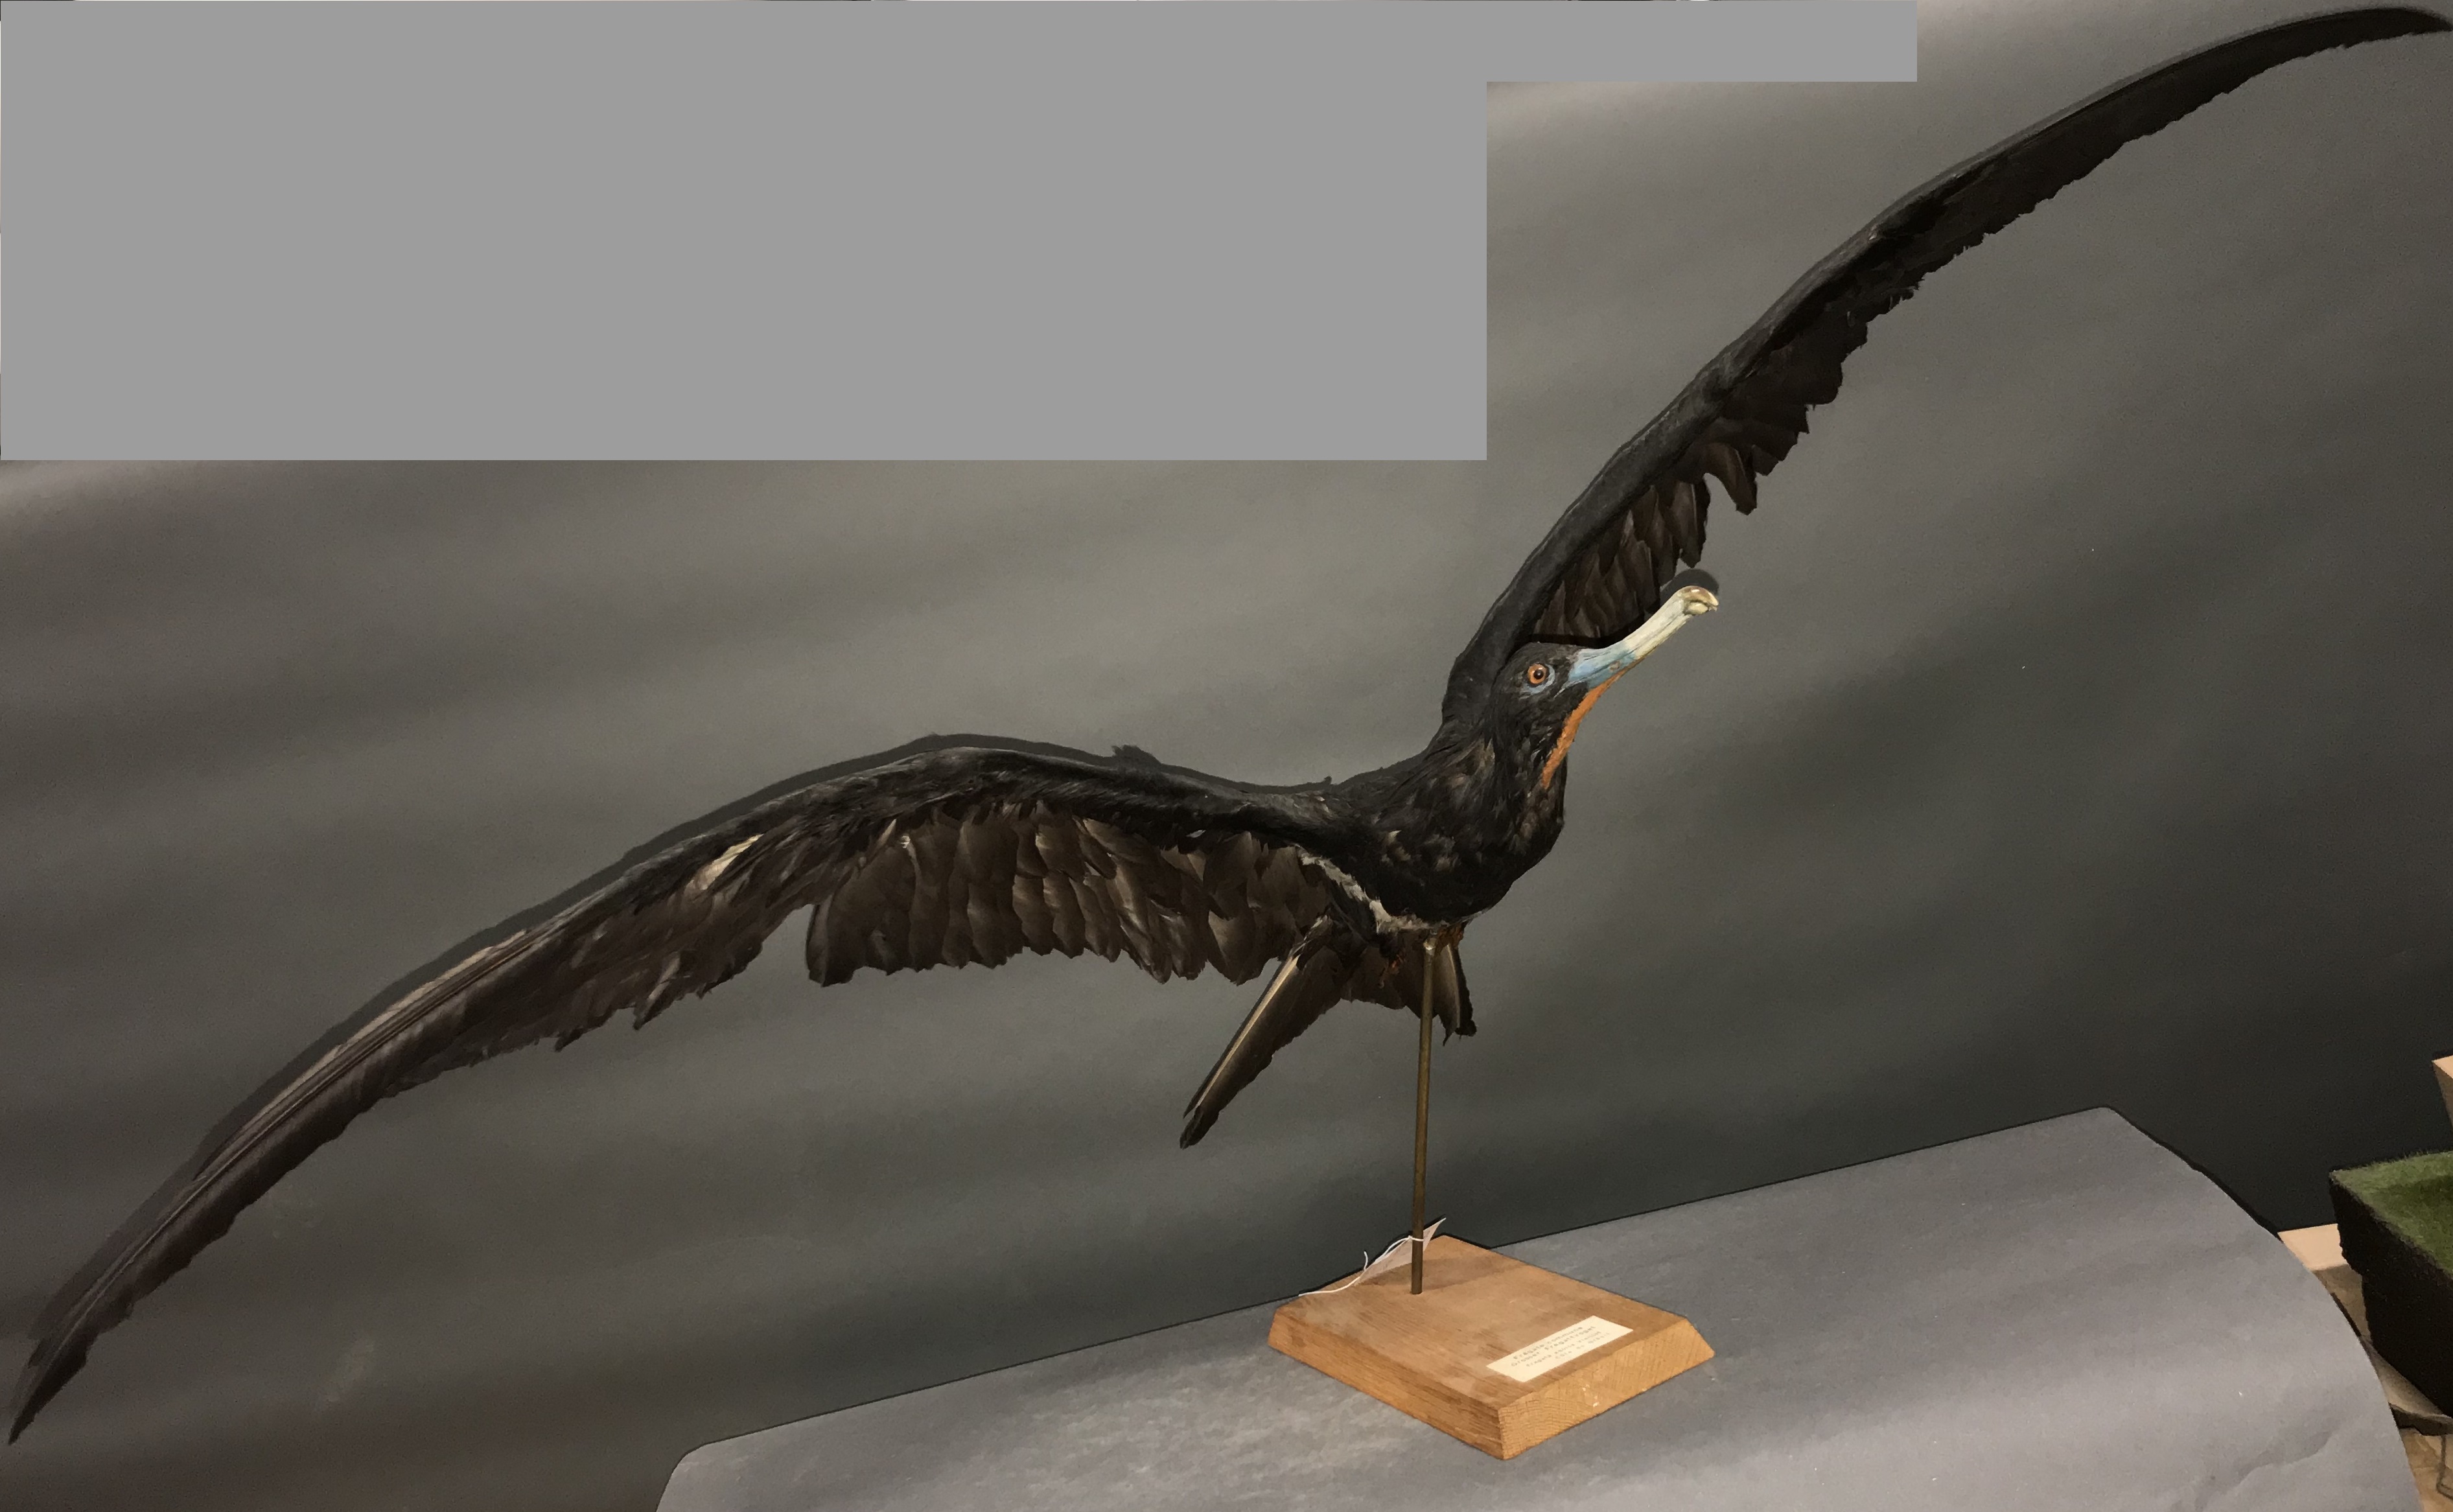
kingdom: Animalia
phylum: Chordata
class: Aves
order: Suliformes
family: Fregatidae
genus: Fregata
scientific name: Fregata ariel
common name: Lesser frigatebird
